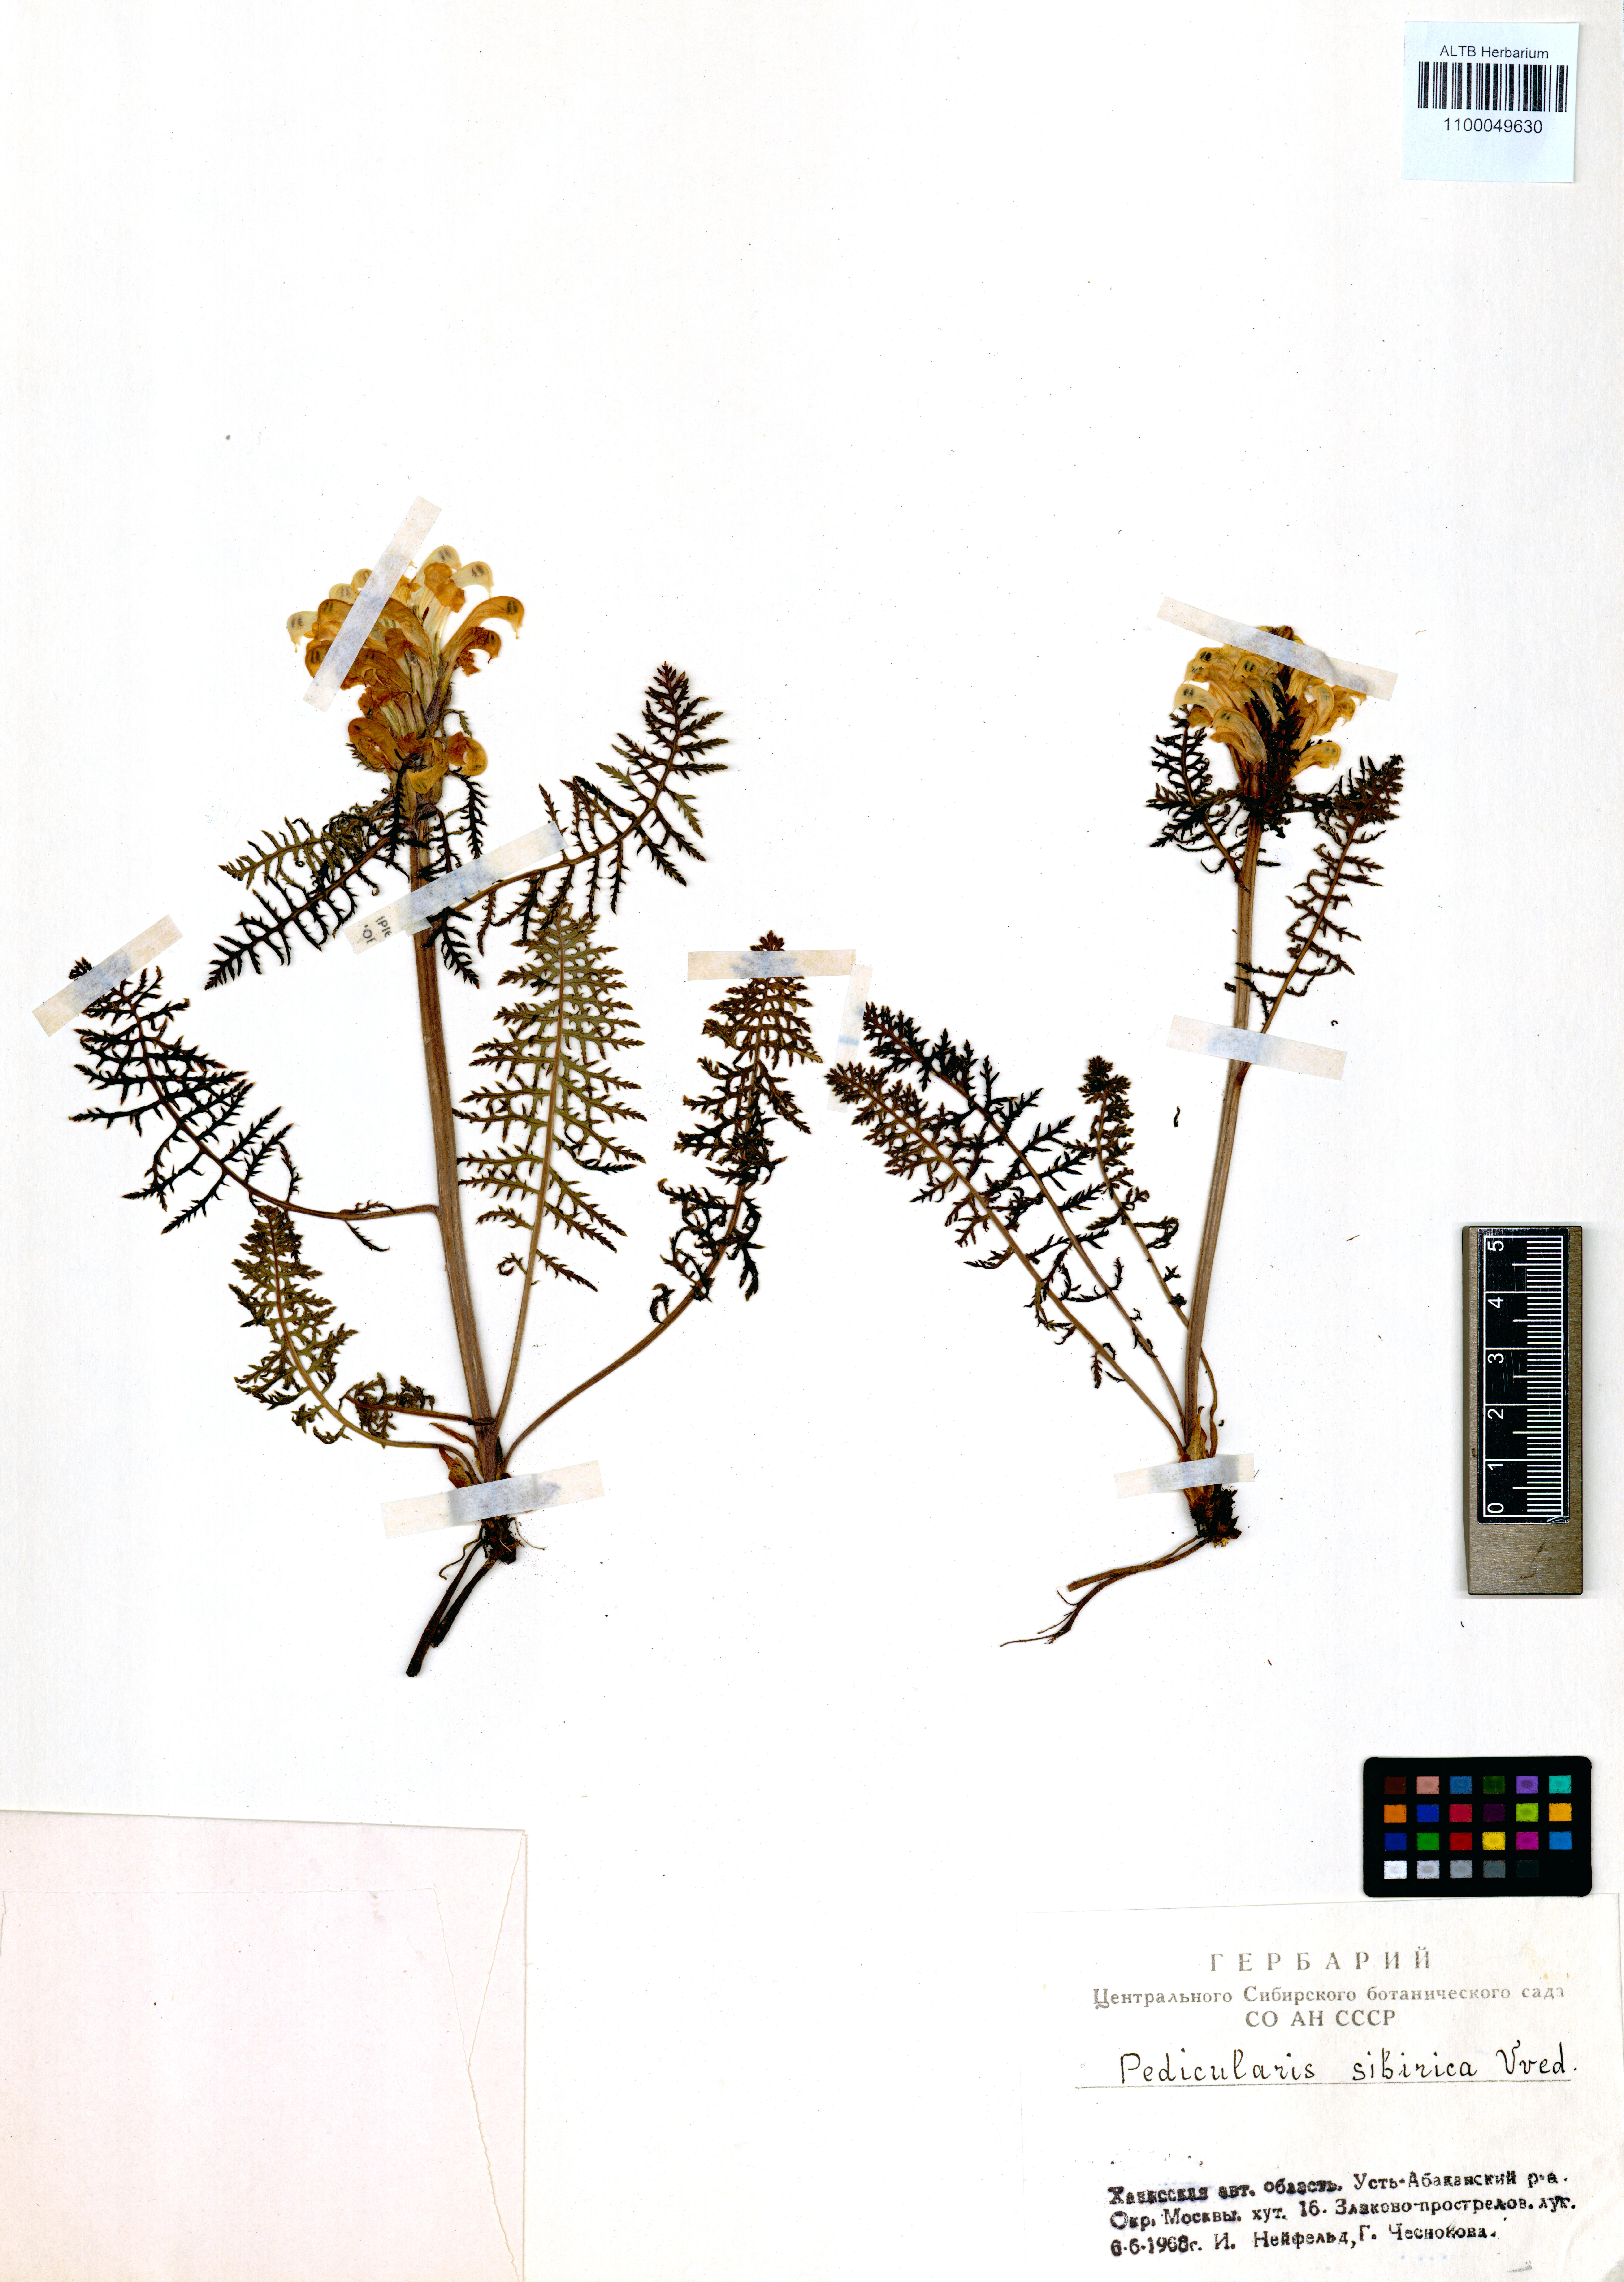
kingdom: Plantae
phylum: Tracheophyta
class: Magnoliopsida
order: Lamiales
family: Orobanchaceae
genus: Pedicularis
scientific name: Pedicularis sibirica
